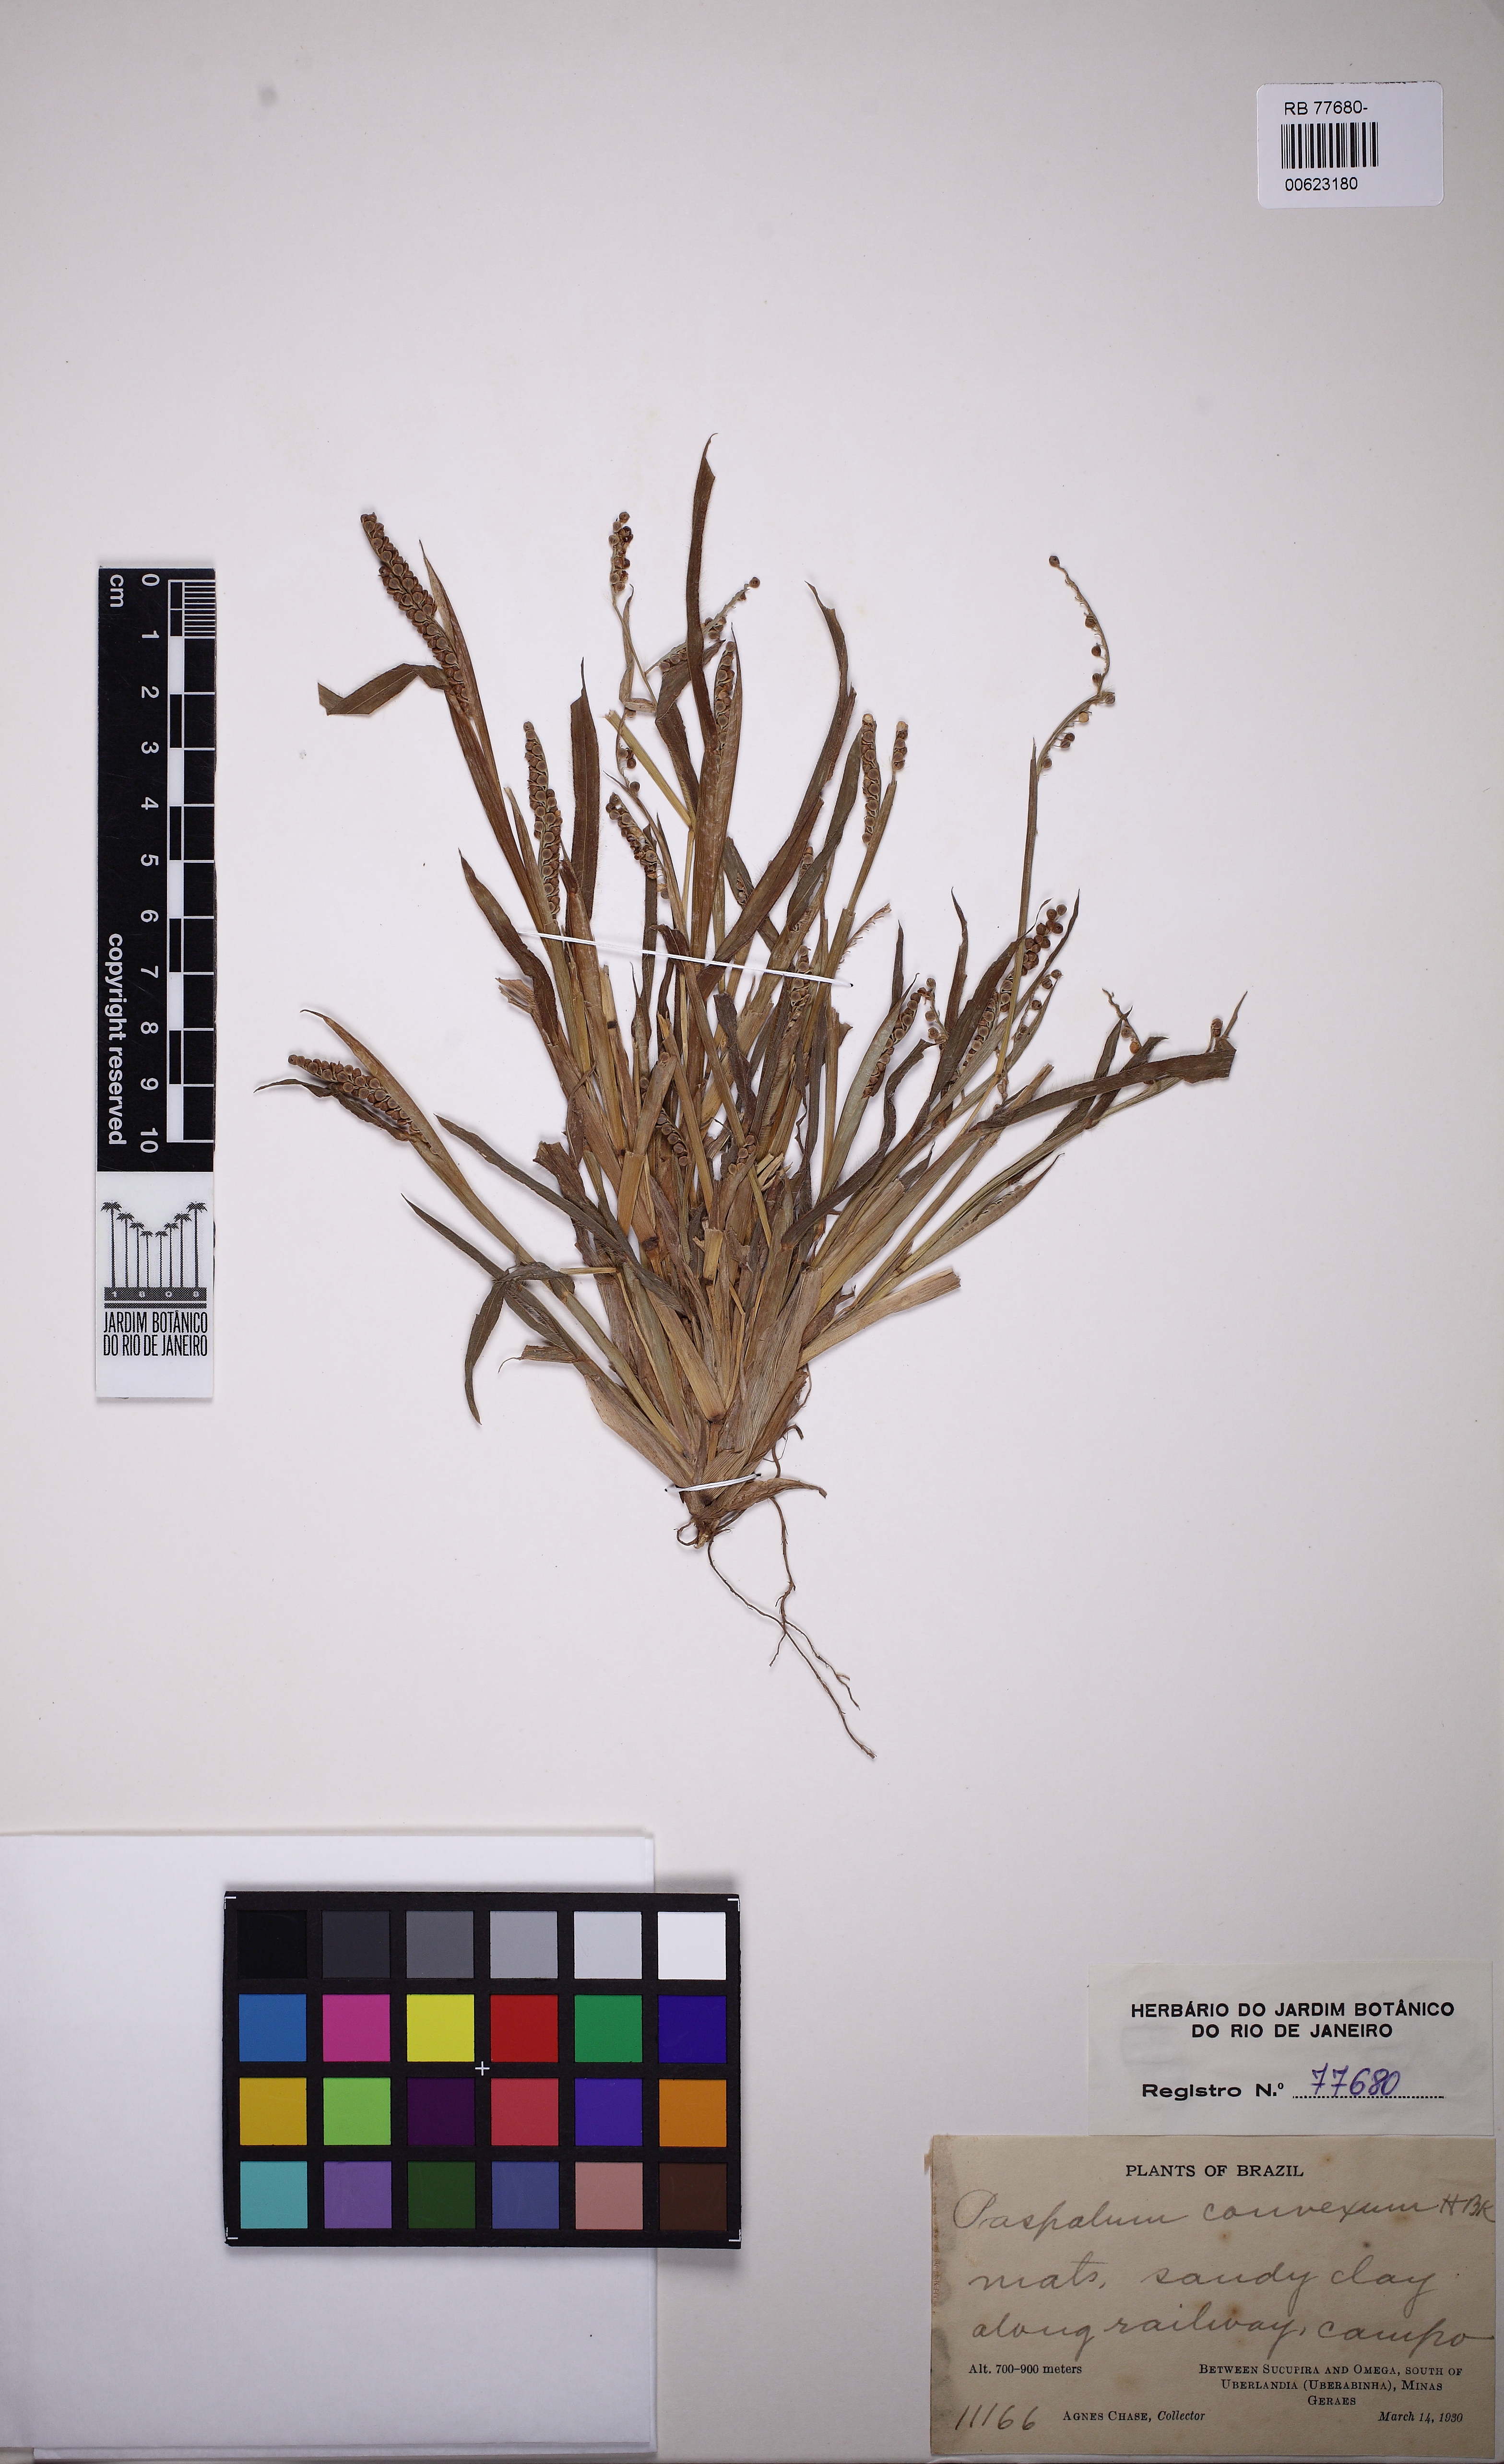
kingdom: Plantae
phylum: Tracheophyta
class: Liliopsida
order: Poales
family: Poaceae
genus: Paspalum
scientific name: Paspalum convexum
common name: Latin american crowngrass
